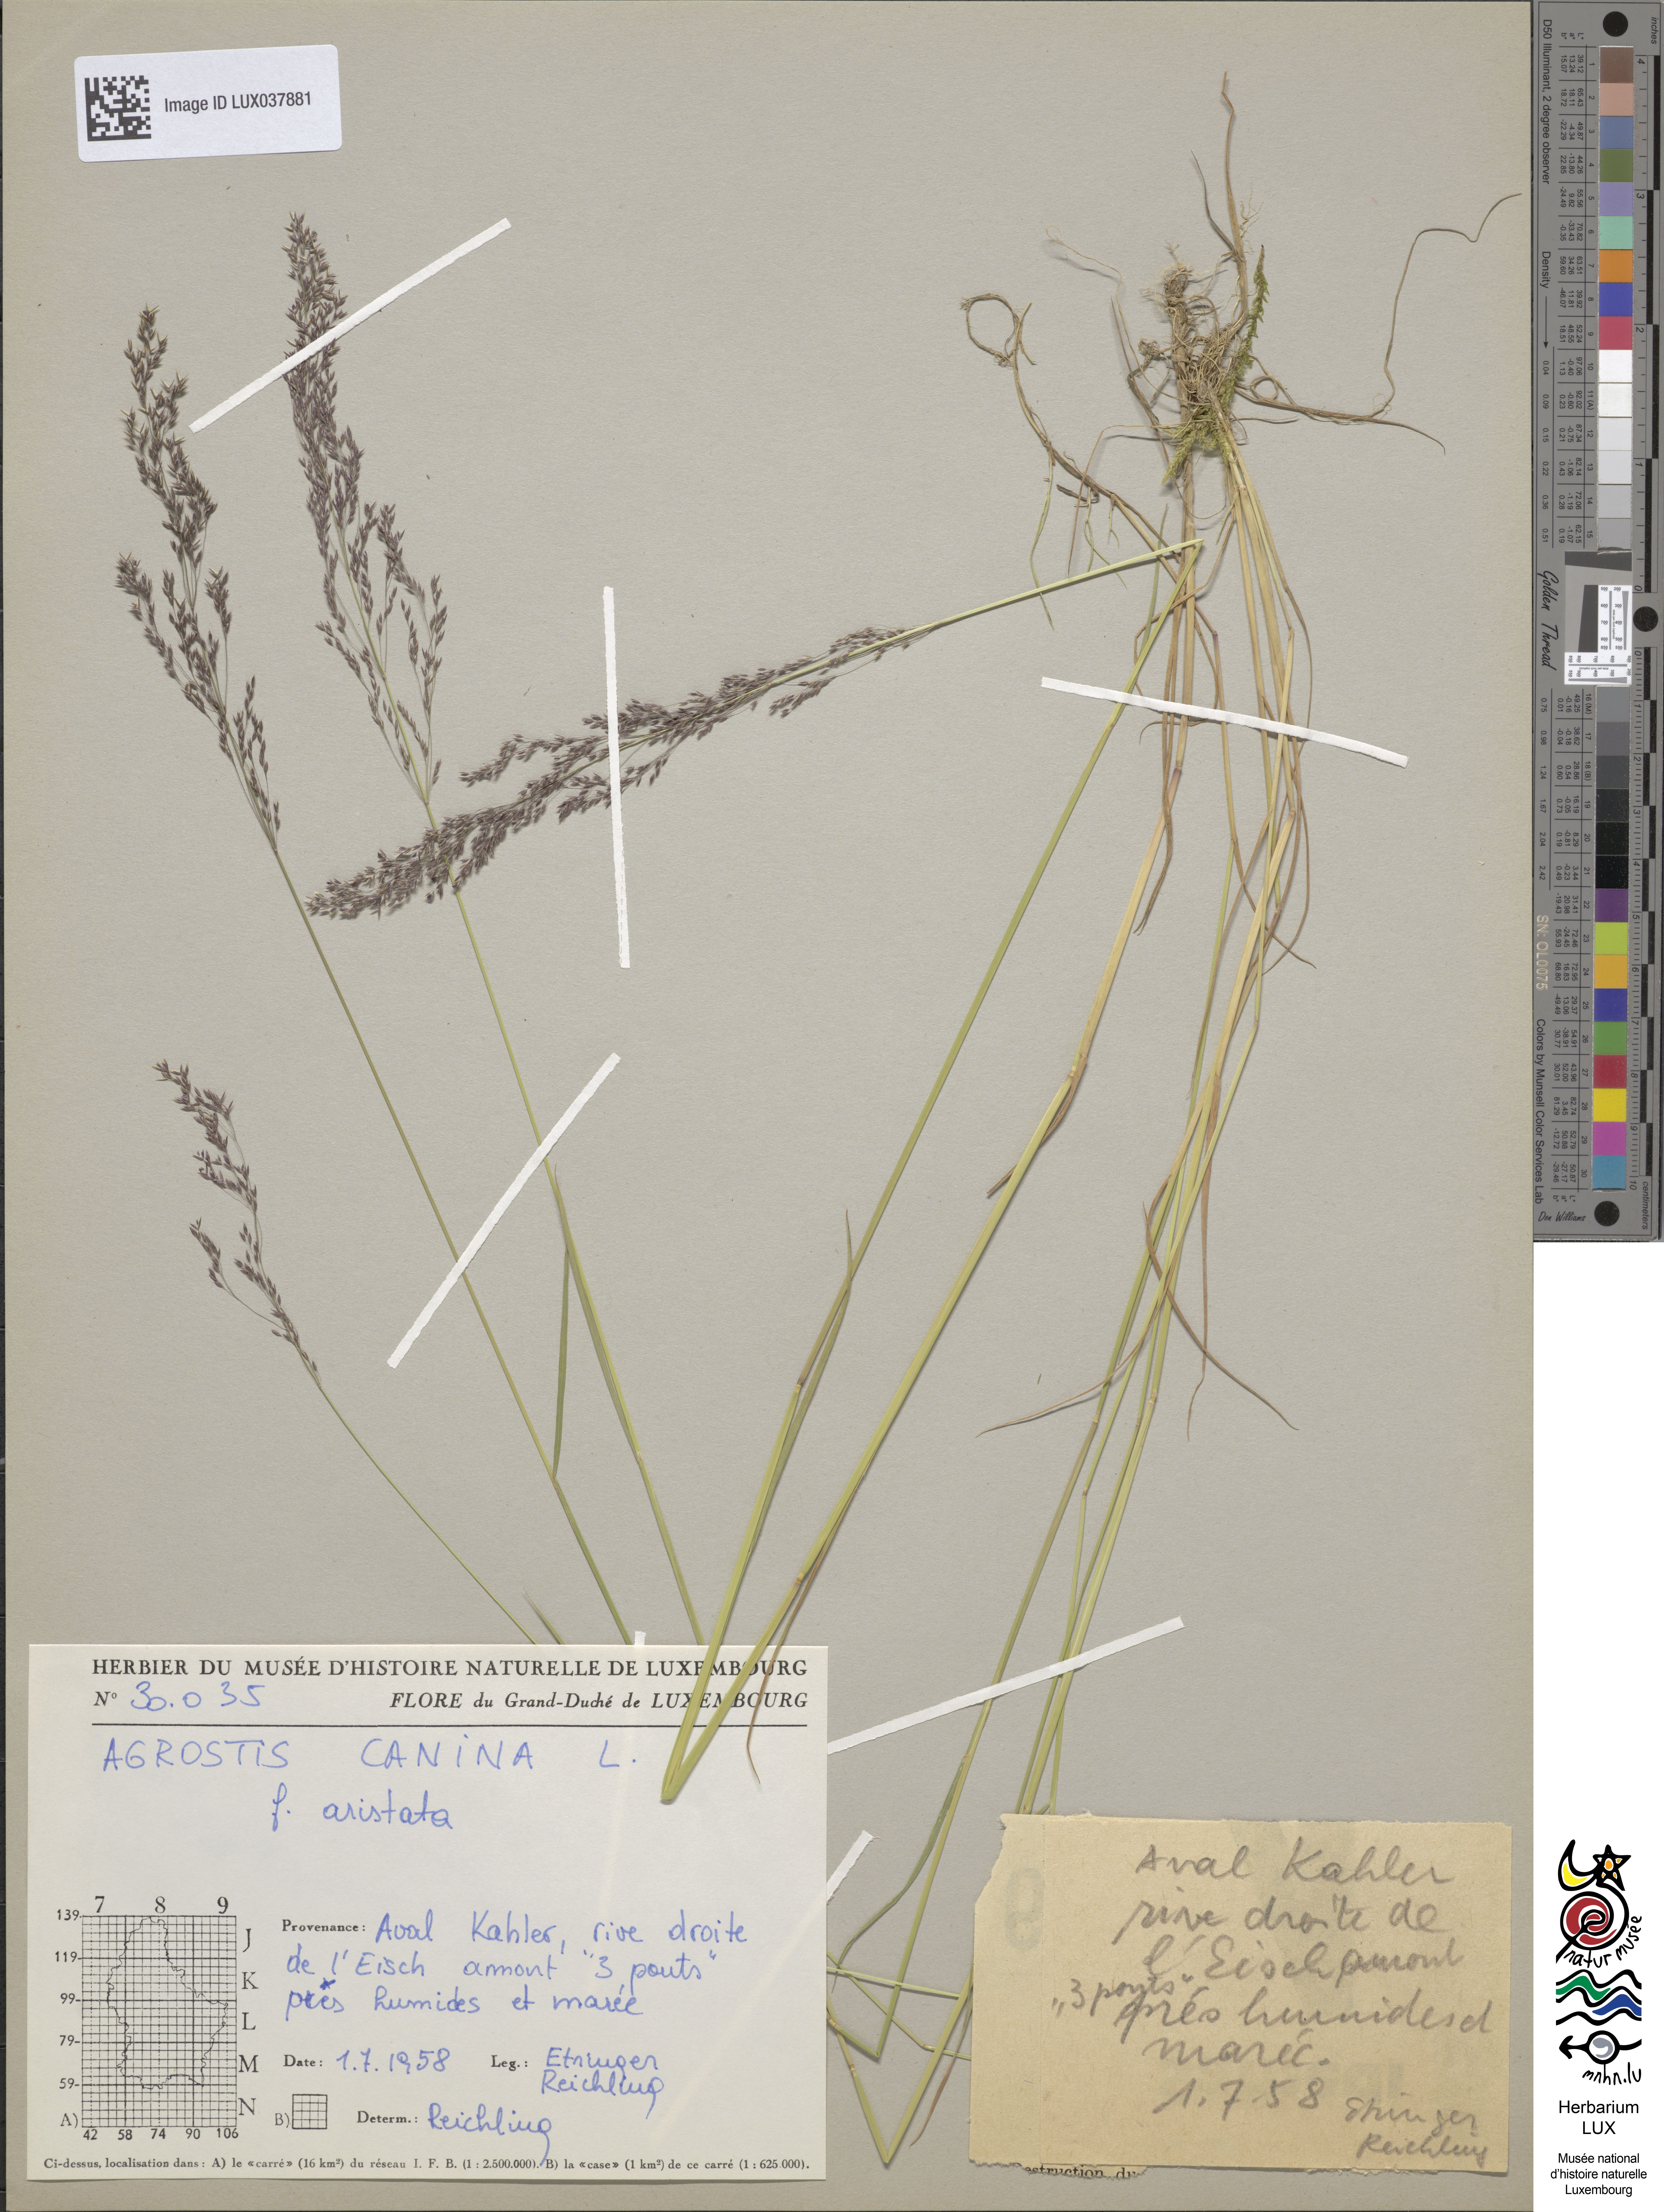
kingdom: Plantae
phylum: Tracheophyta
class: Liliopsida
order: Poales
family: Poaceae
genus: Agrostis
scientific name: Agrostis canina
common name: Velvet bent
